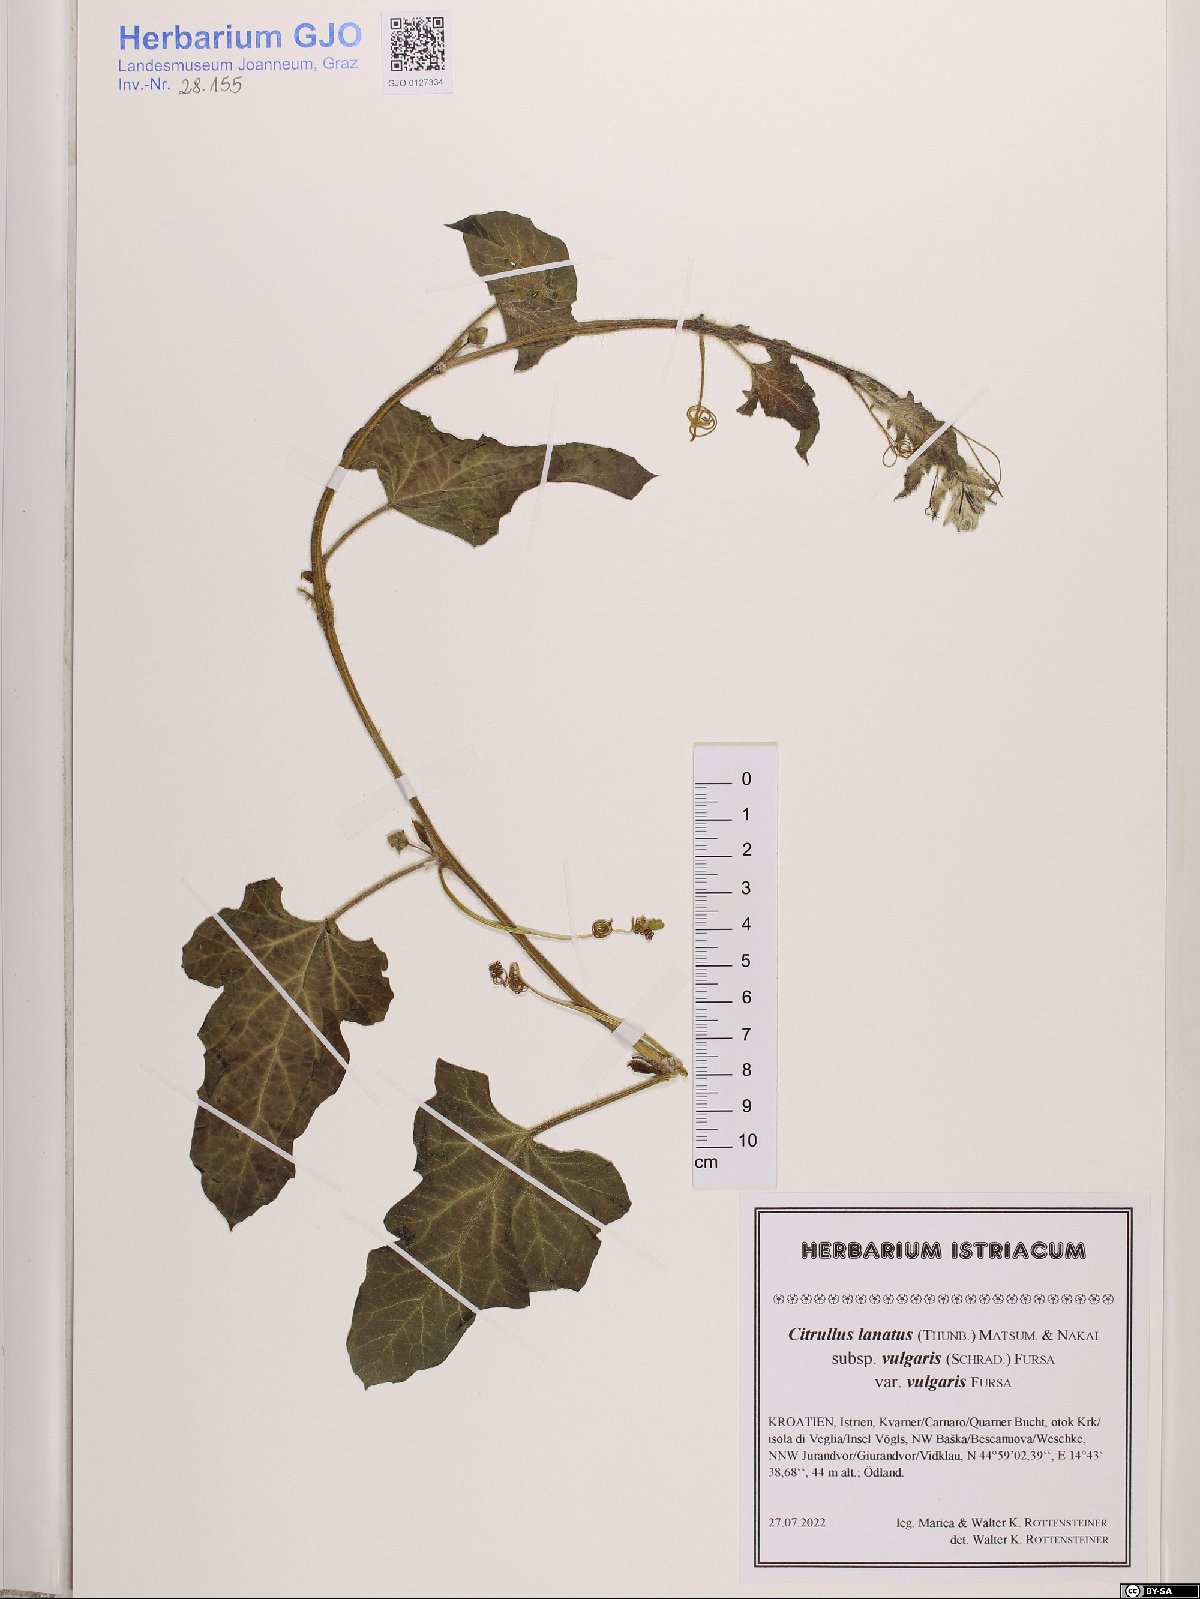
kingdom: Plantae
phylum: Tracheophyta
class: Magnoliopsida
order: Cucurbitales
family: Cucurbitaceae
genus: Citrullus
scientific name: Citrullus lanatus
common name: Watermelon
